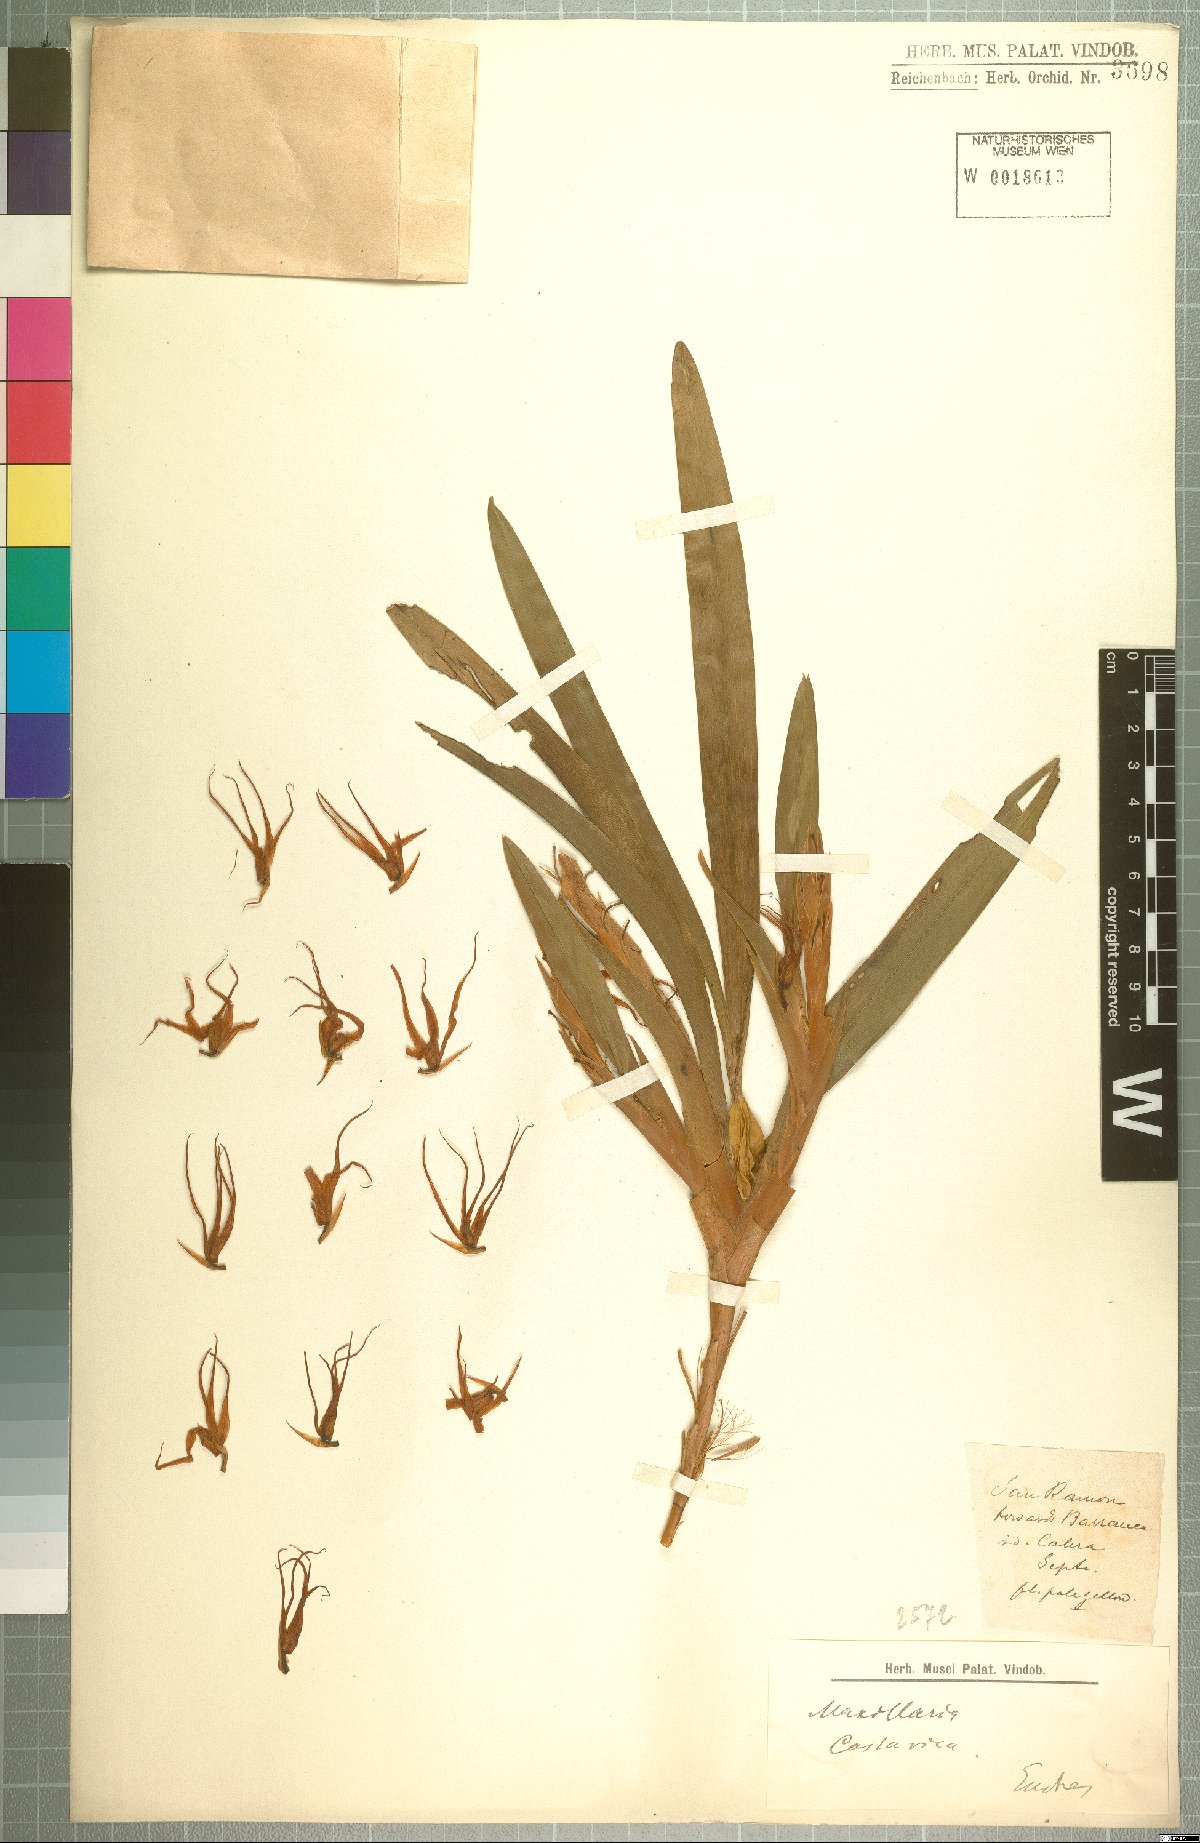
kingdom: Plantae
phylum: Tracheophyta
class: Liliopsida
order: Asparagales
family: Orchidaceae
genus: Maxillaria
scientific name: Maxillaria
